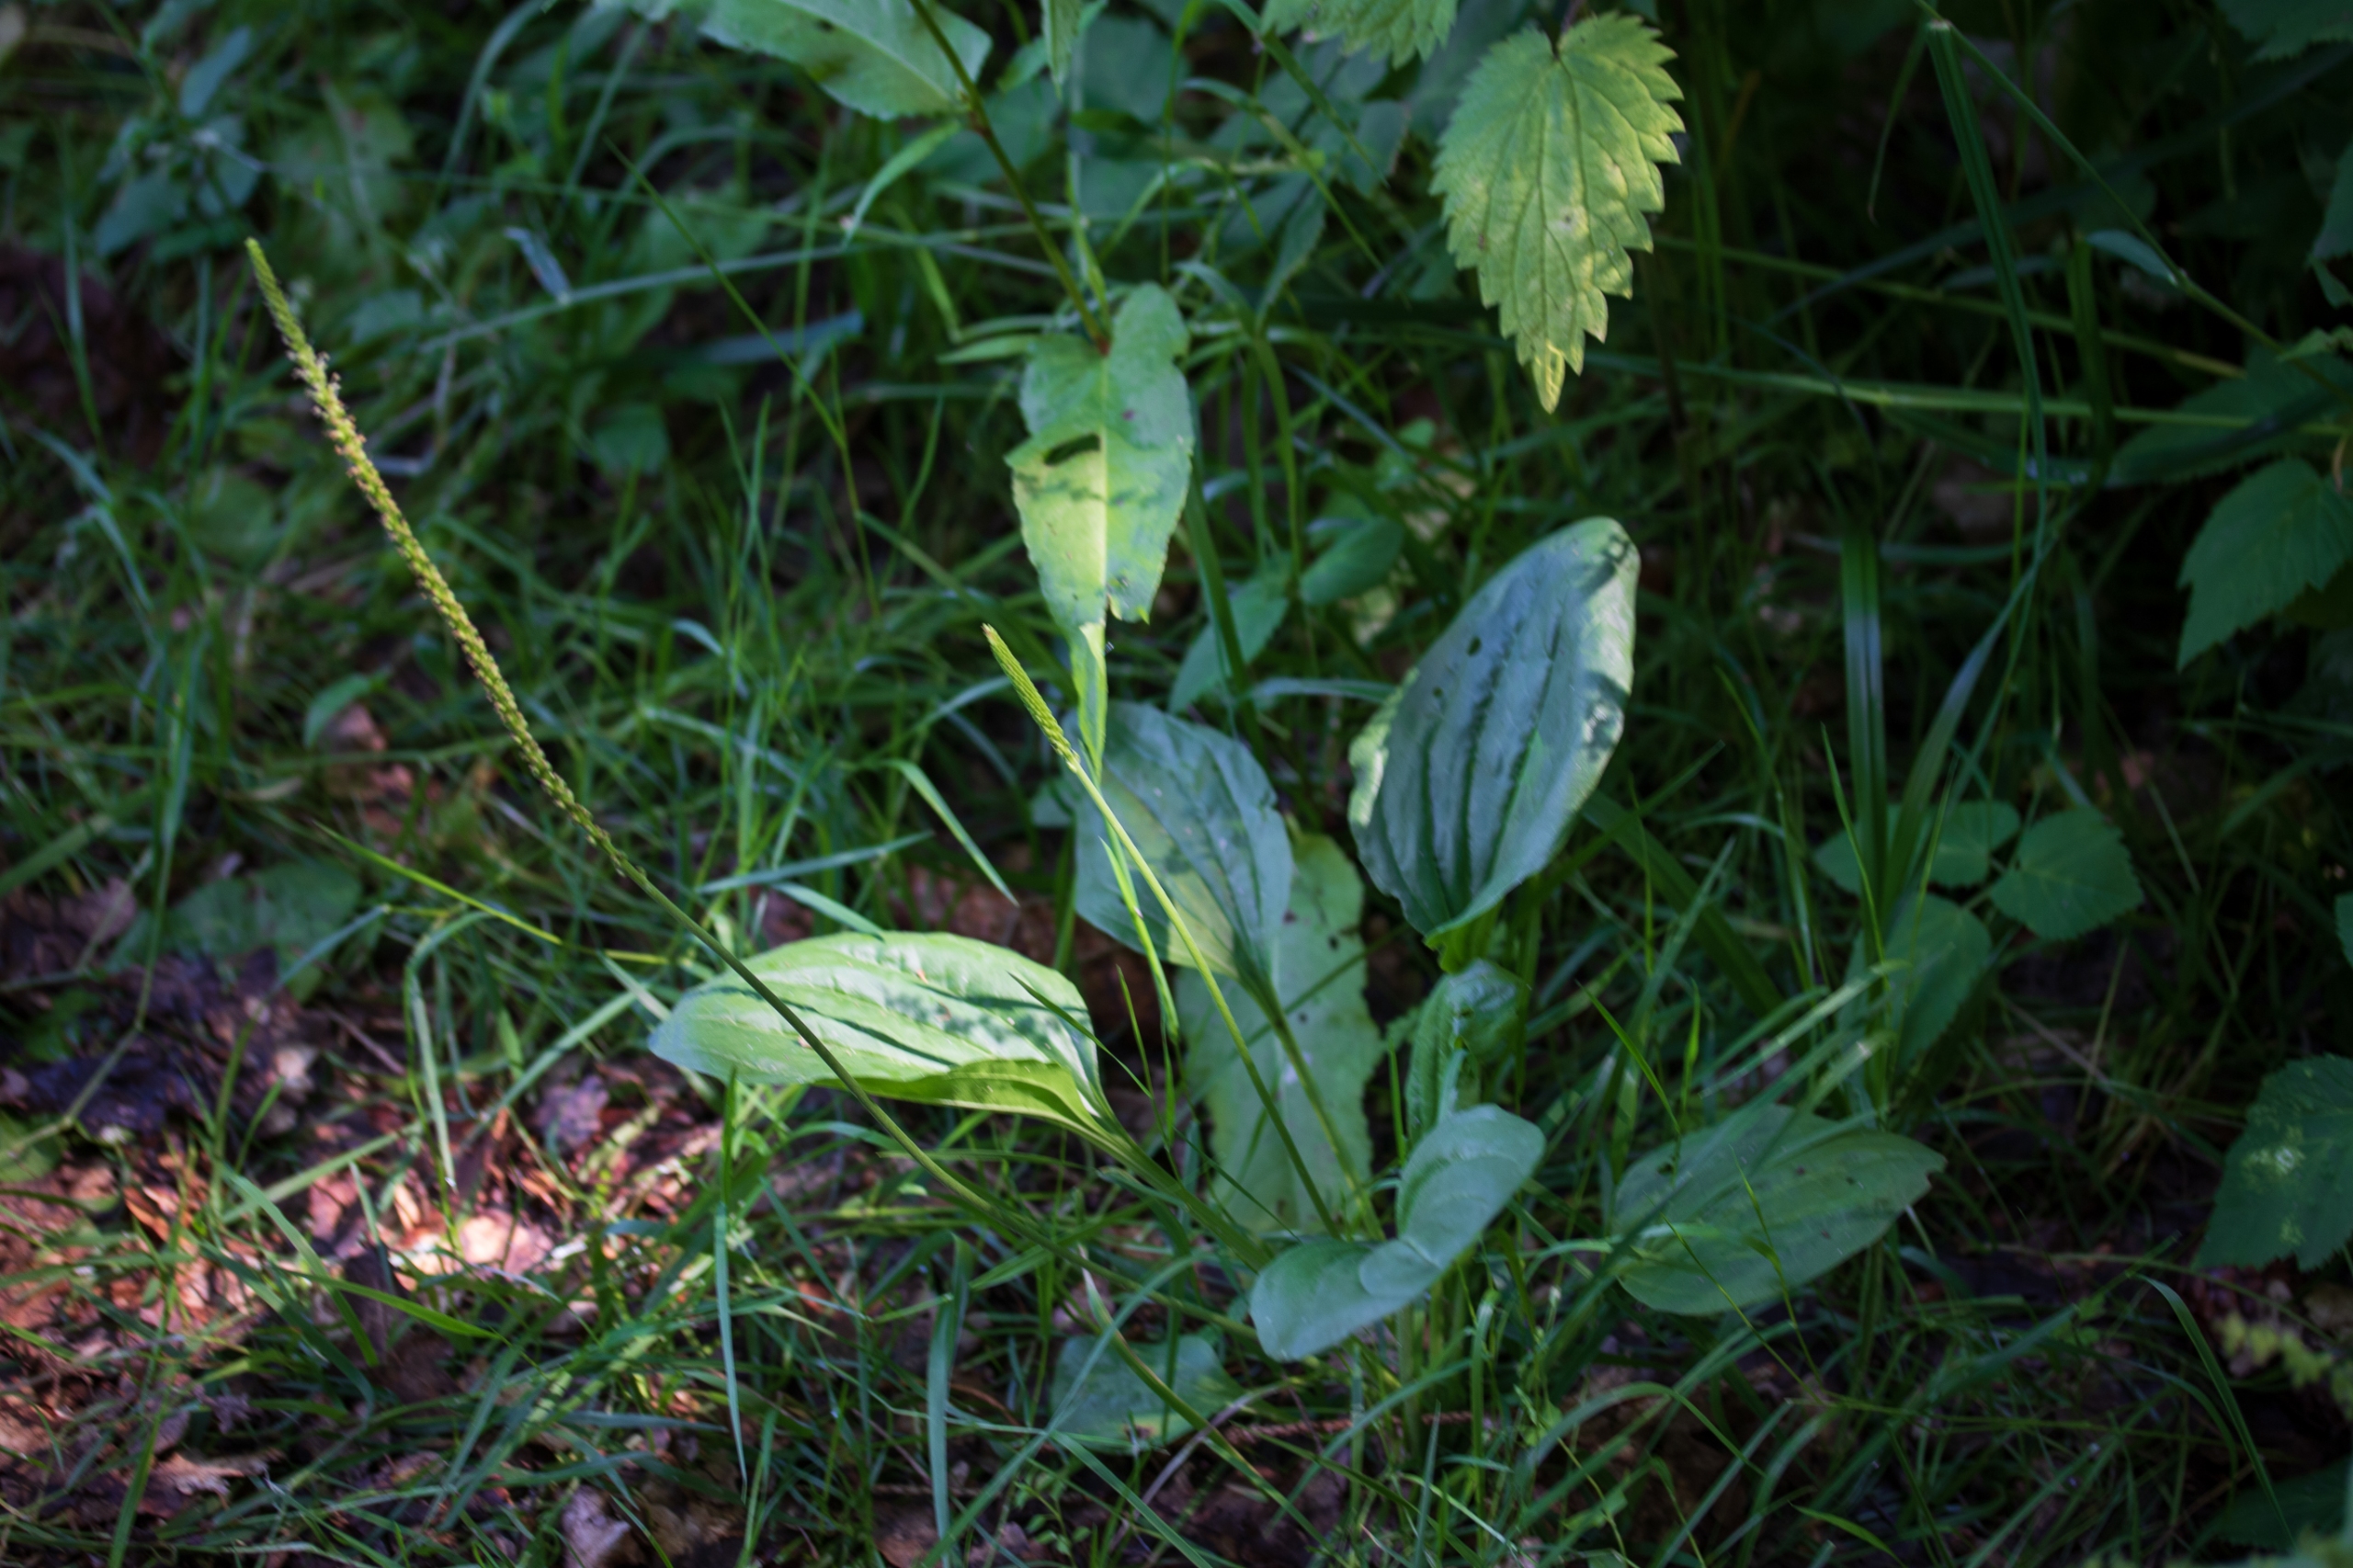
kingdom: Plantae
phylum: Tracheophyta
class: Magnoliopsida
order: Lamiales
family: Plantaginaceae
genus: Plantago
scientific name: Plantago major
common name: Glat vejbred
